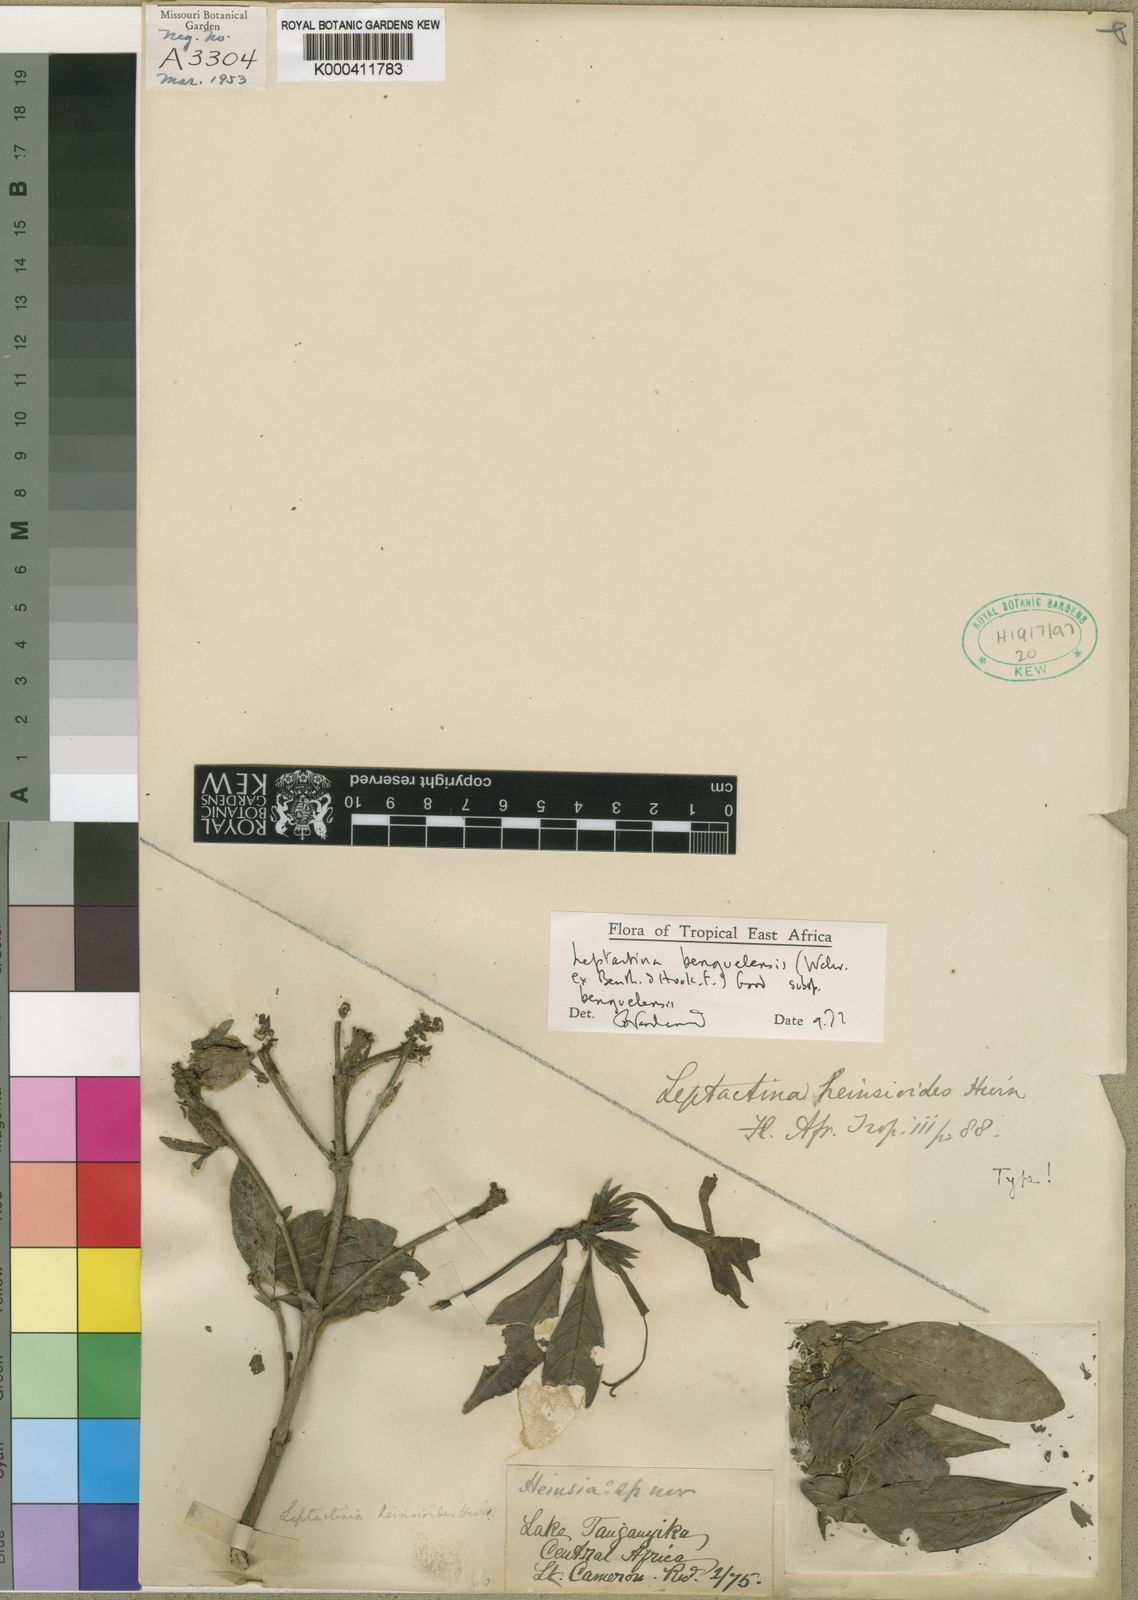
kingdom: Plantae
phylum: Tracheophyta
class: Magnoliopsida
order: Gentianales
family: Rubiaceae
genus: Leptactina
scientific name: Leptactina benguelensis
